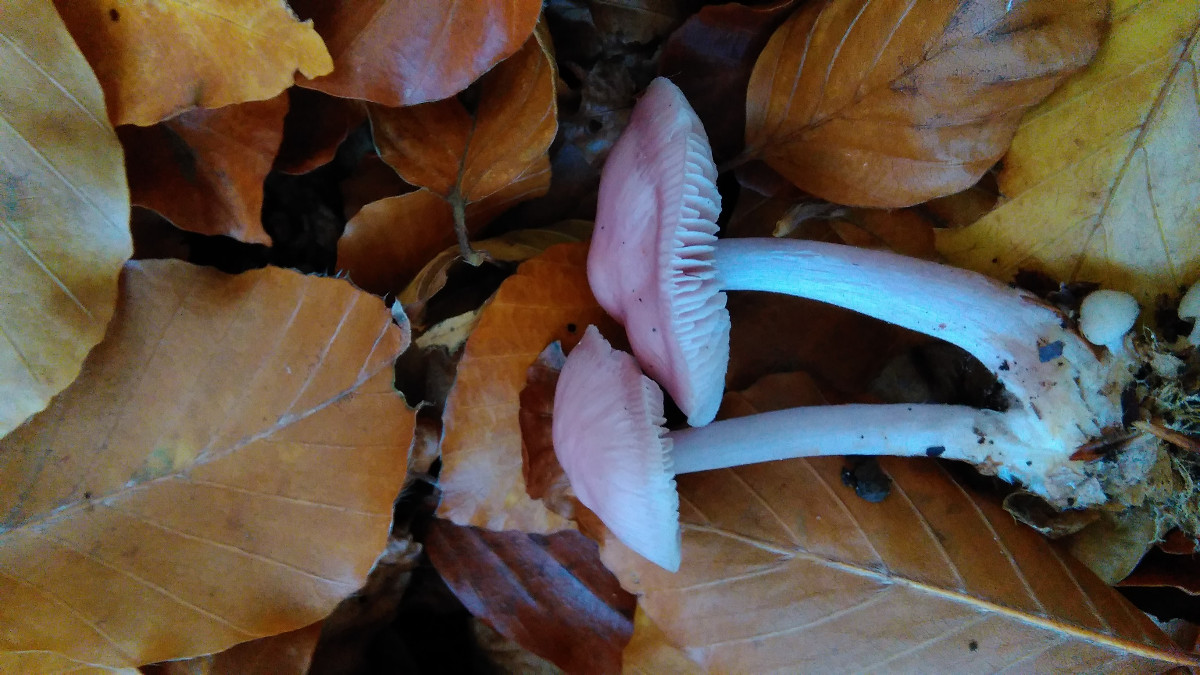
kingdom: Fungi
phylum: Basidiomycota
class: Agaricomycetes
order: Agaricales
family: Mycenaceae
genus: Mycena
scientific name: Mycena rosea
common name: rosa huesvamp
